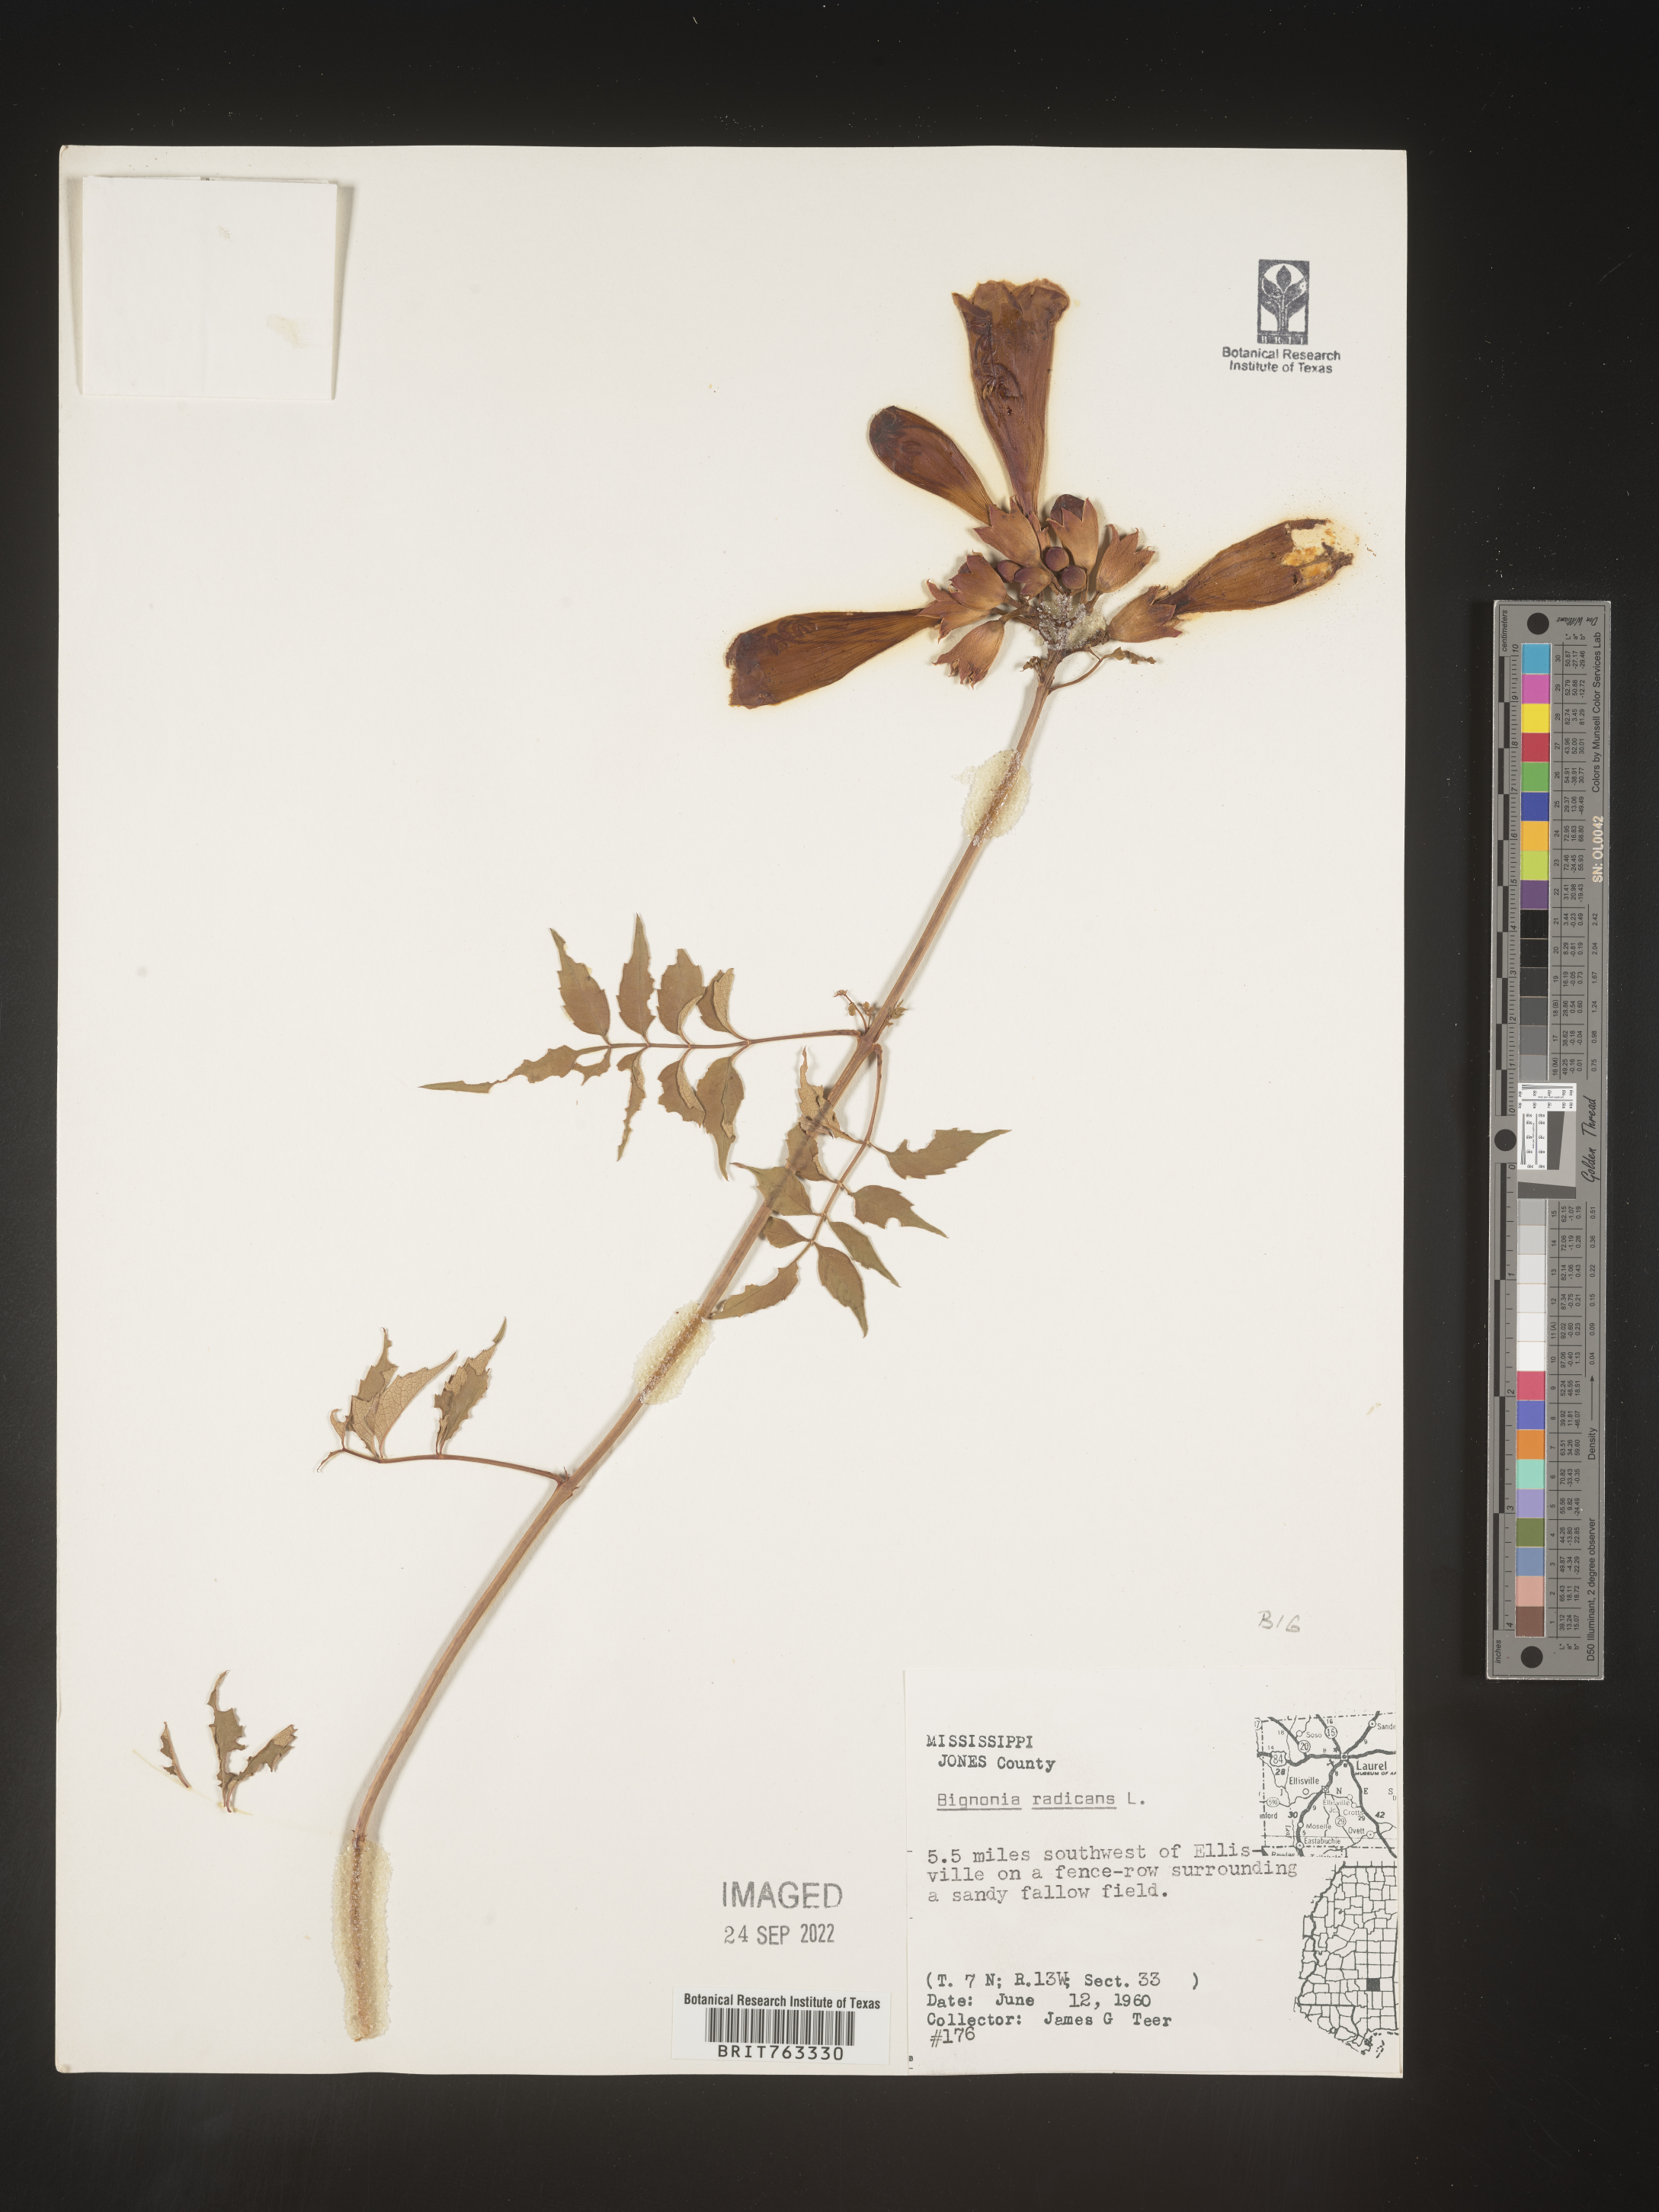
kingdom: Plantae
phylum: Tracheophyta
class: Magnoliopsida
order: Lamiales
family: Bignoniaceae
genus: Campsis
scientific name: Campsis radicans
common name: Trumpet-creeper
